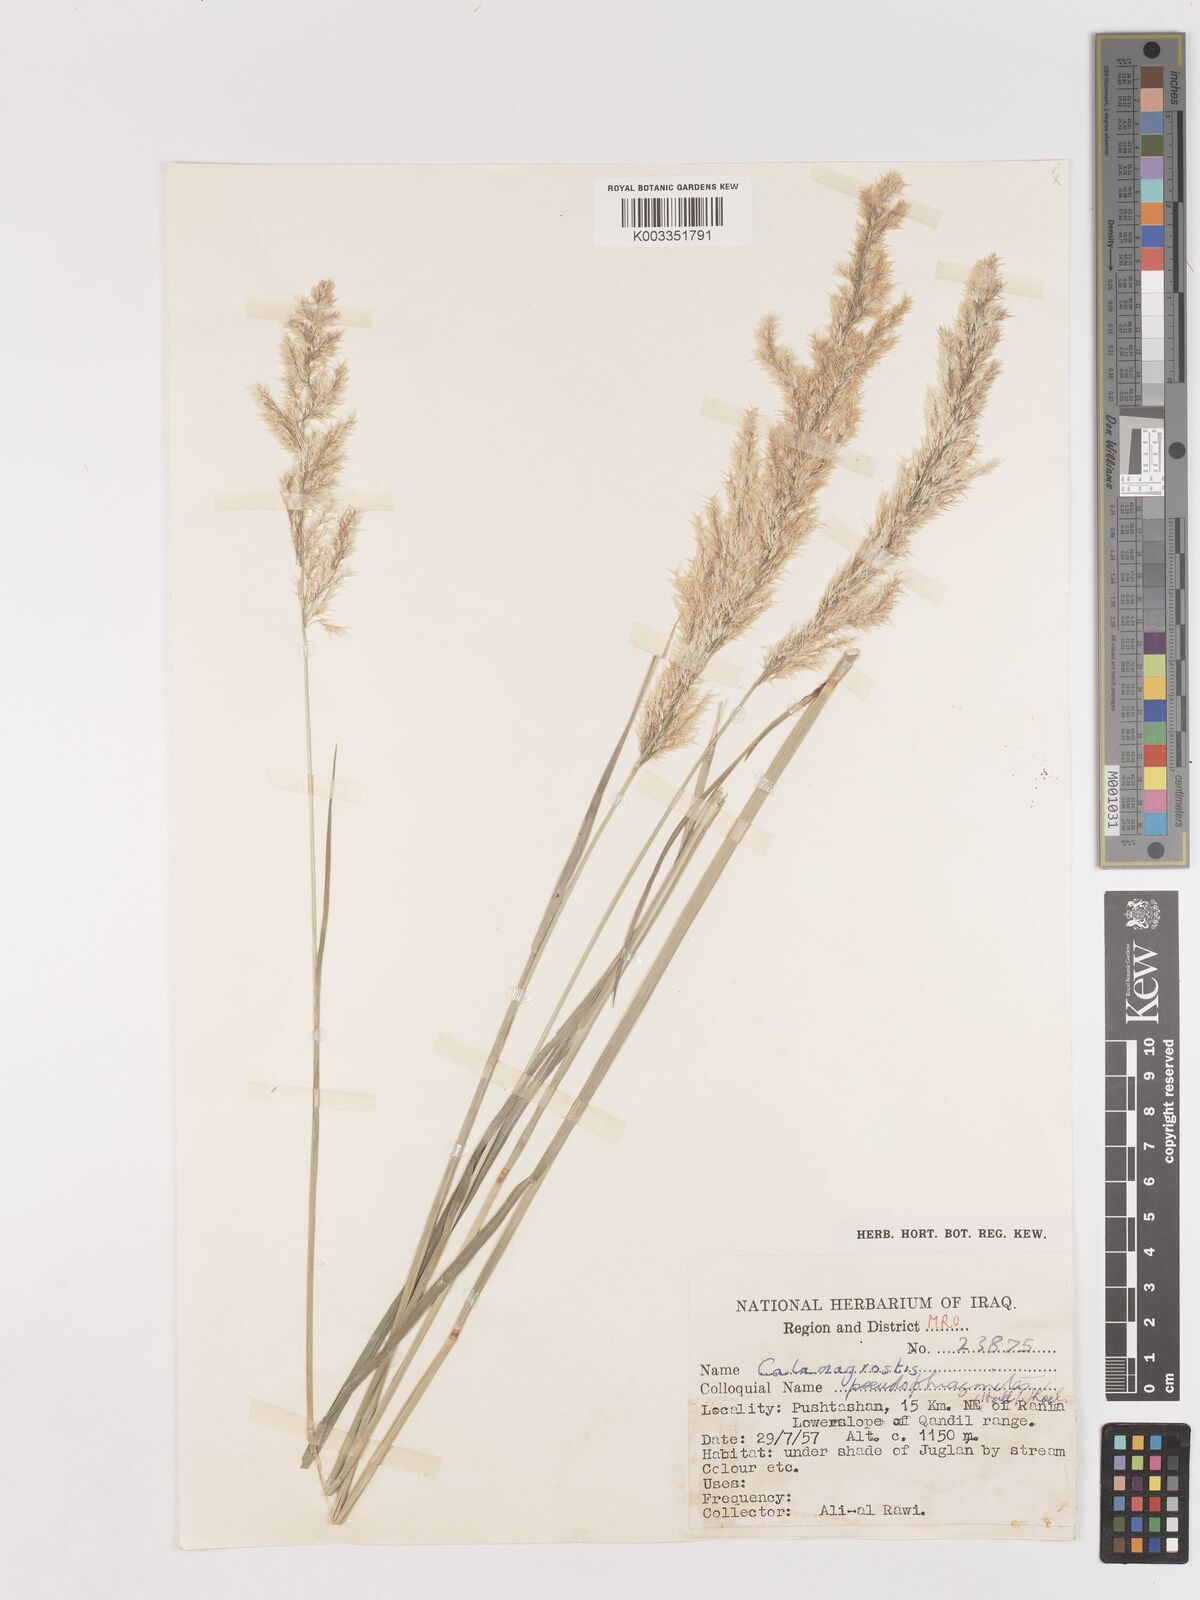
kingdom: Plantae
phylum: Tracheophyta
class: Liliopsida
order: Poales
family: Poaceae
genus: Calamagrostis
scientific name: Calamagrostis pseudophragmites
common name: Coastal small-reed
